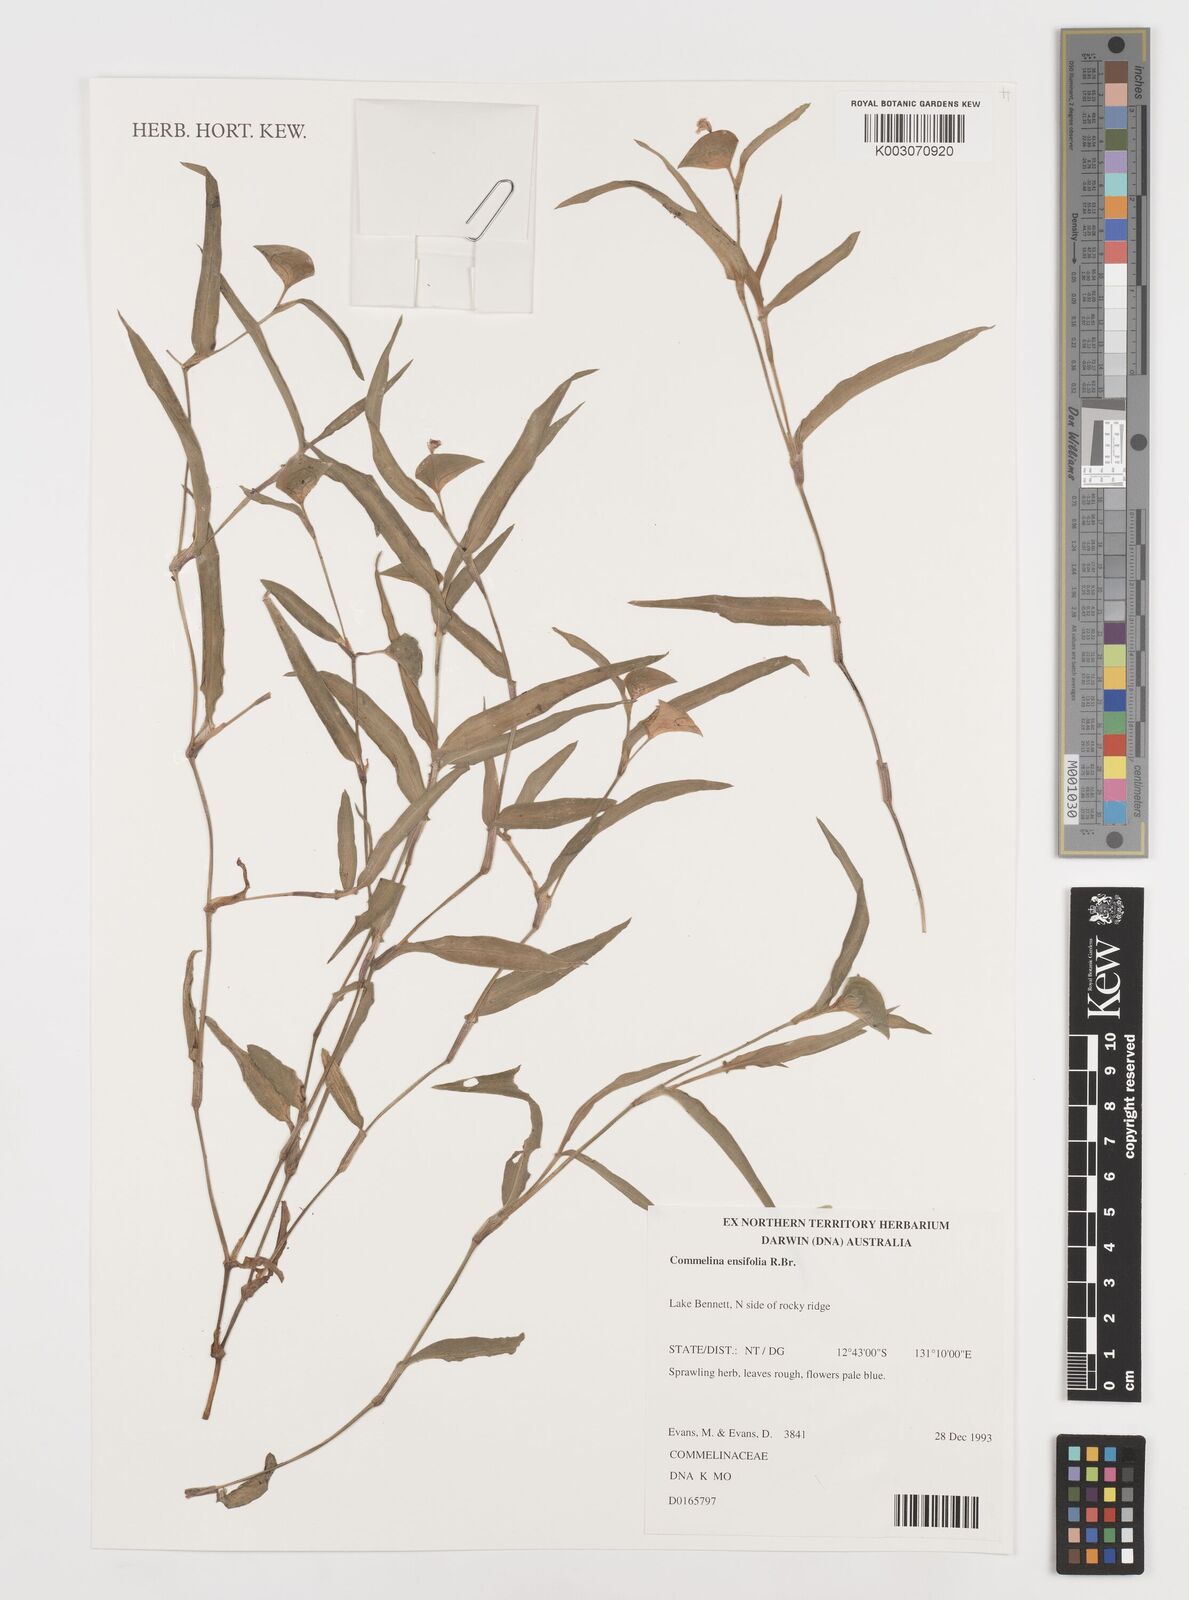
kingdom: Plantae
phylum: Tracheophyta
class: Liliopsida
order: Commelinales
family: Commelinaceae
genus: Commelina
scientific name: Commelina ensifolia
